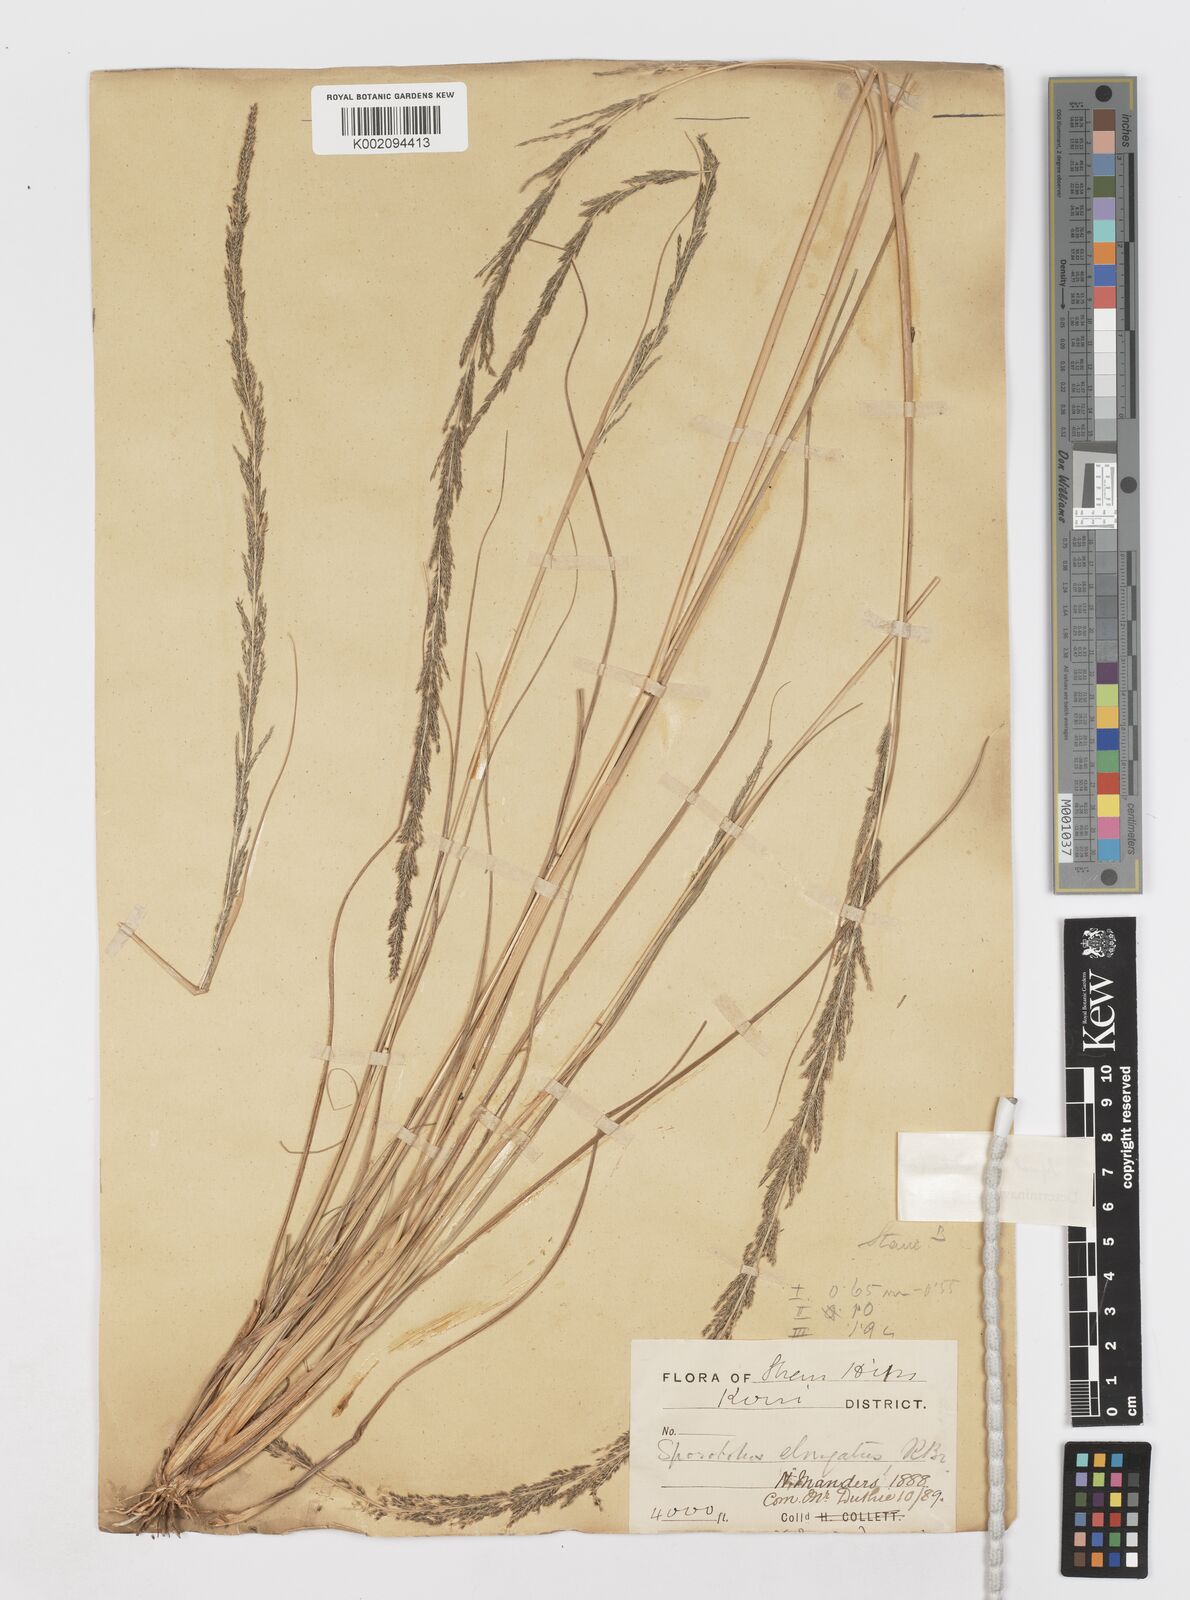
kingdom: Plantae
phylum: Tracheophyta
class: Liliopsida
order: Poales
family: Poaceae
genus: Sporobolus
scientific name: Sporobolus fertilis
